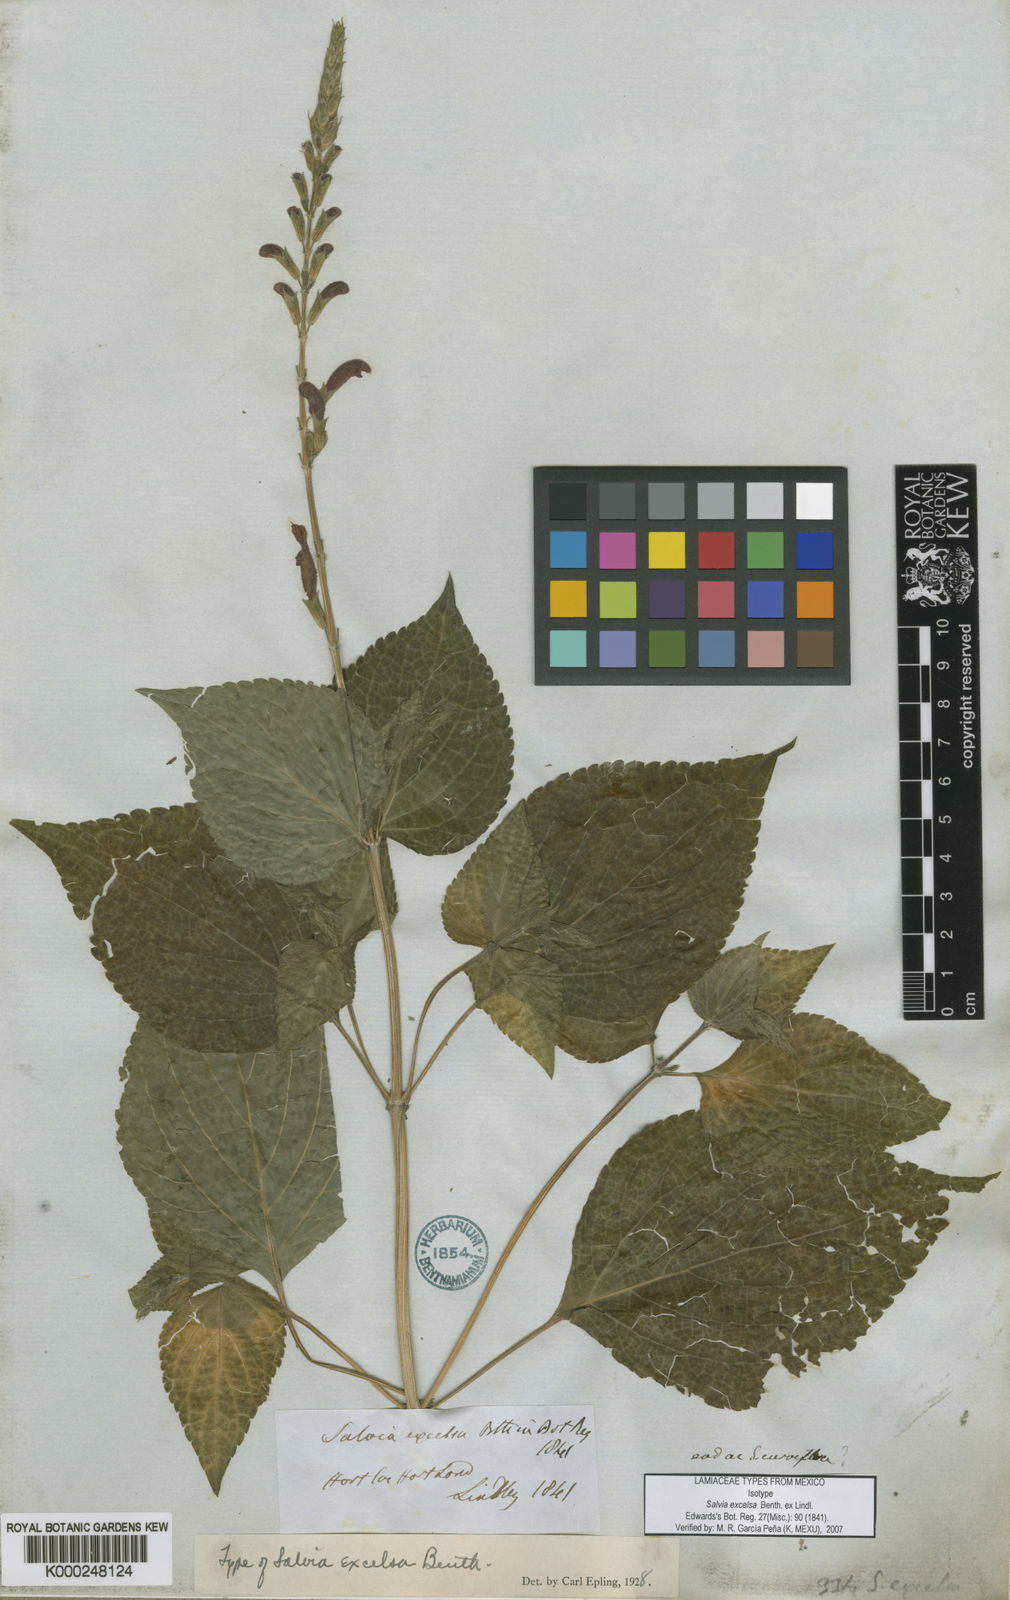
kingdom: Plantae
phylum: Tracheophyta
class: Magnoliopsida
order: Lamiales
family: Lamiaceae
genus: Salvia
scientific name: Salvia tubifera
